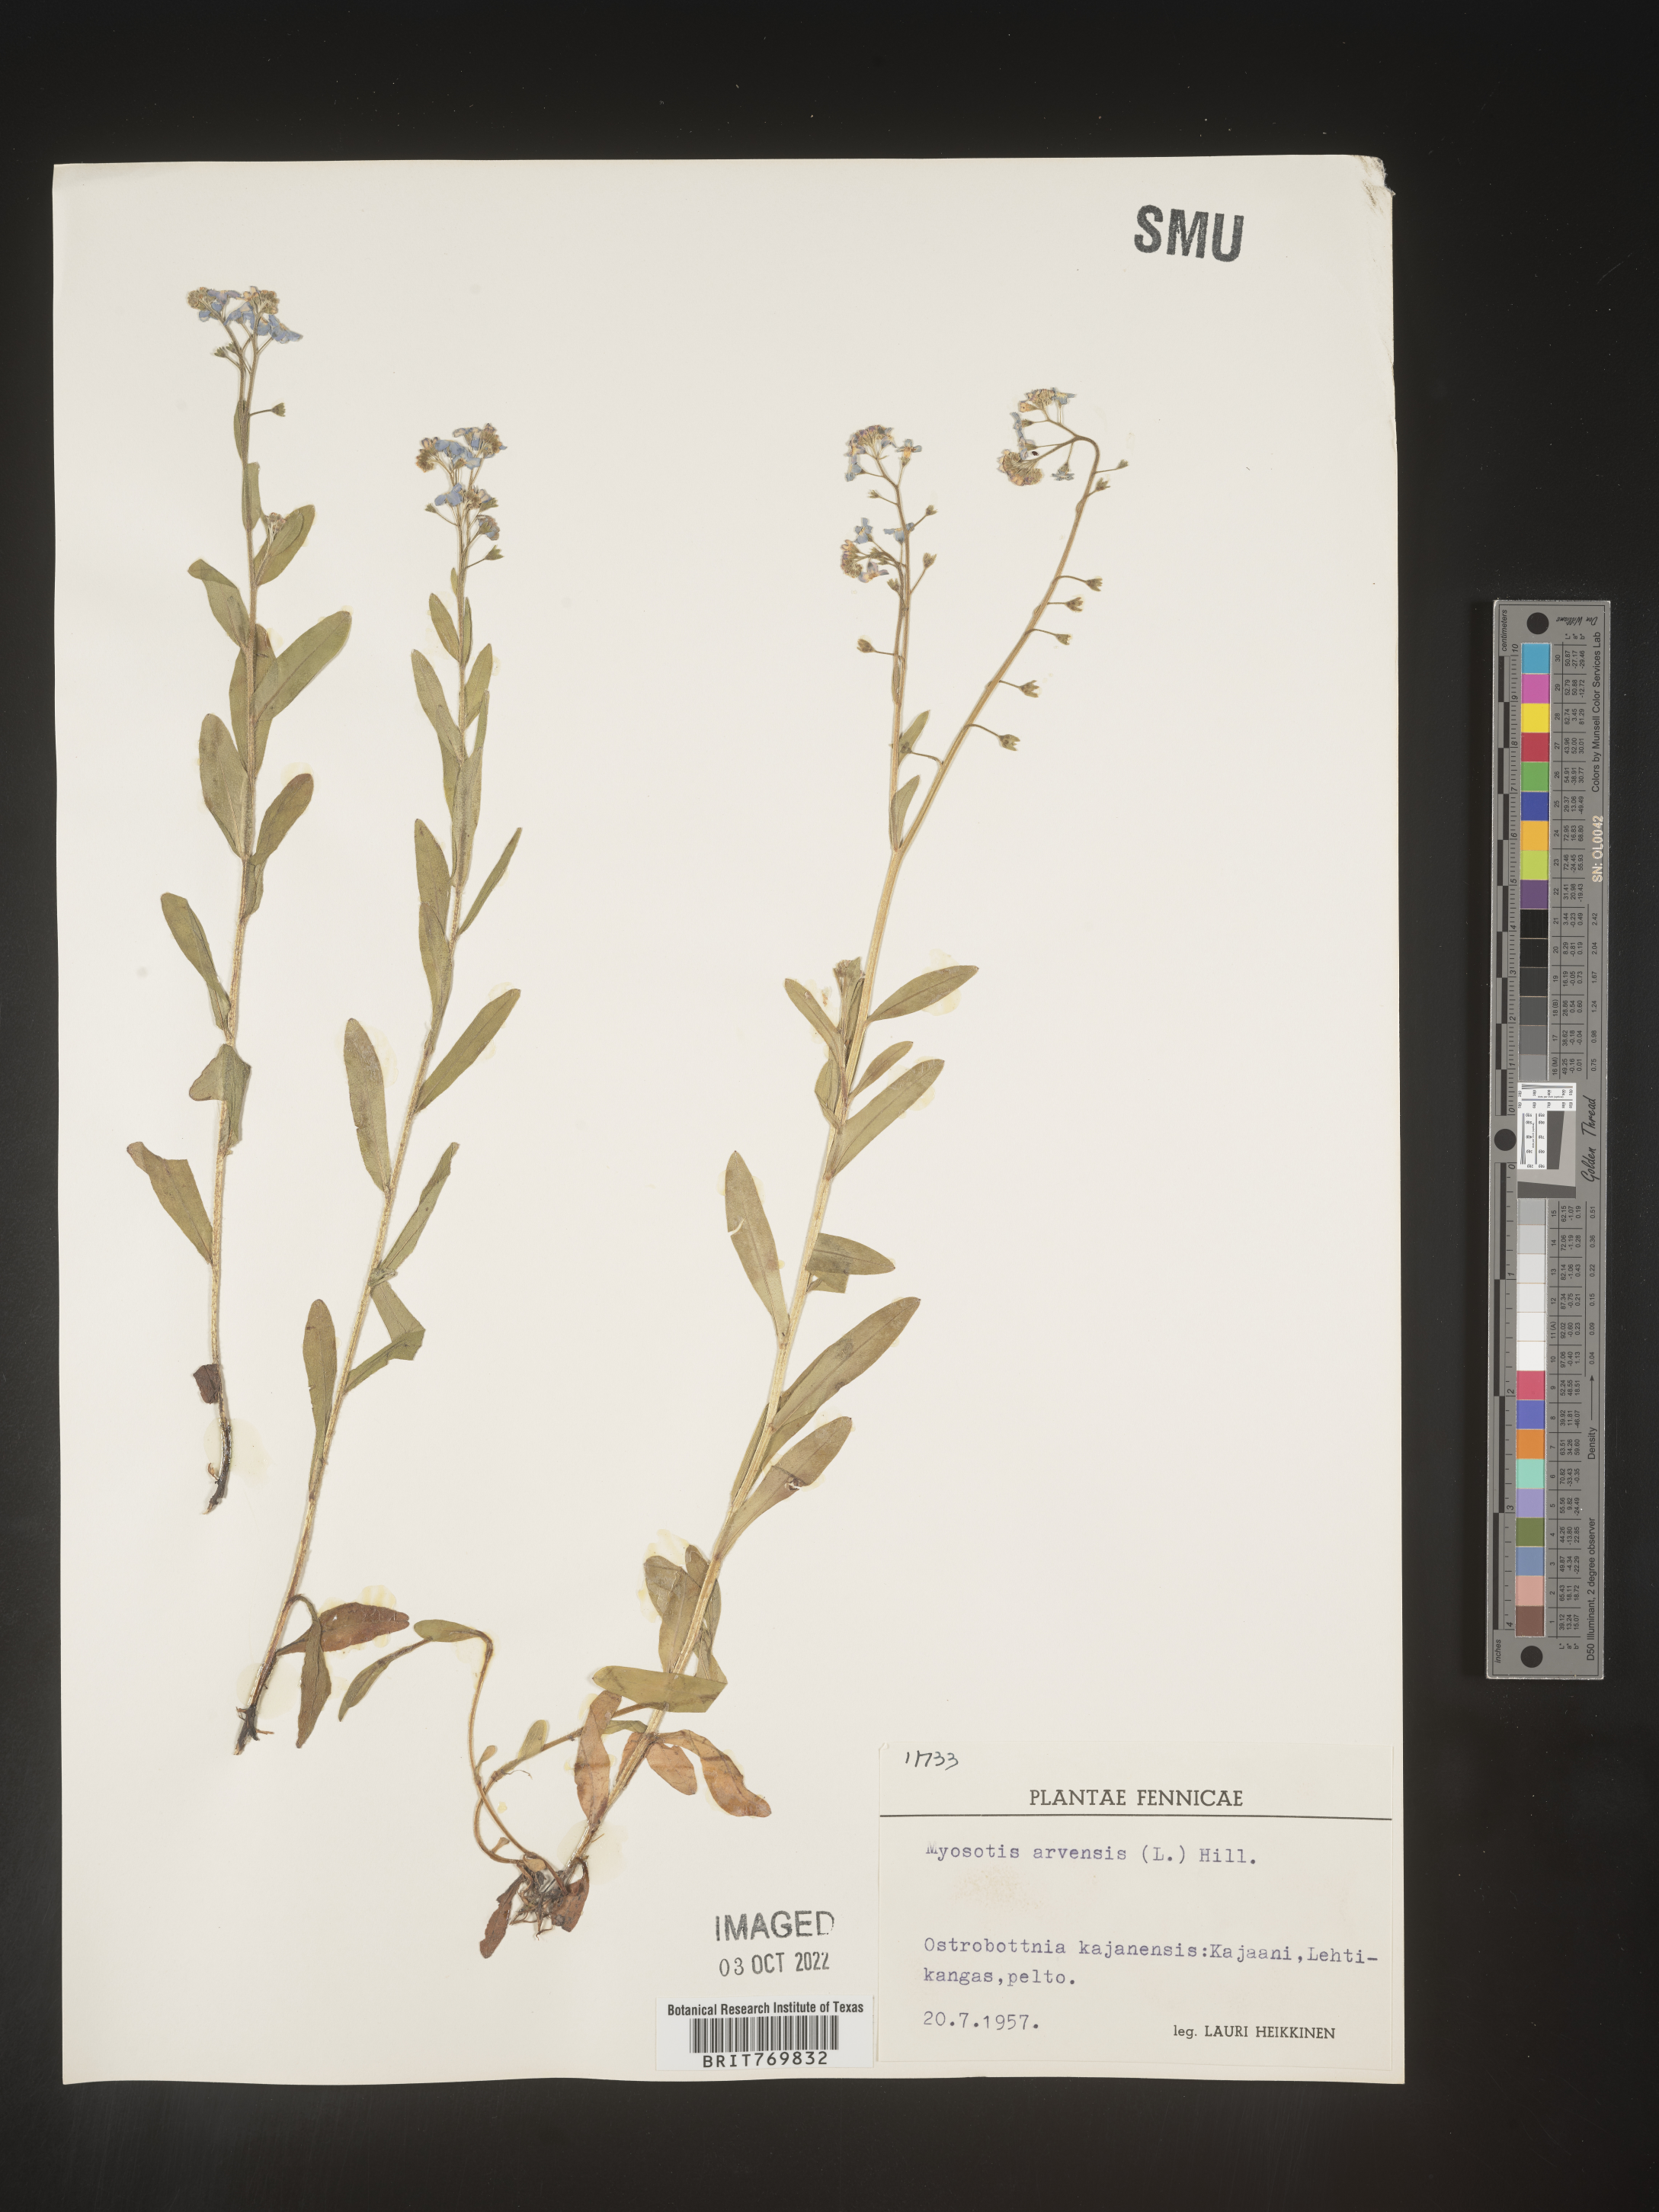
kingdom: Plantae
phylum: Tracheophyta
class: Magnoliopsida
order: Boraginales
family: Boraginaceae
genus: Myosotis
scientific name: Myosotis
